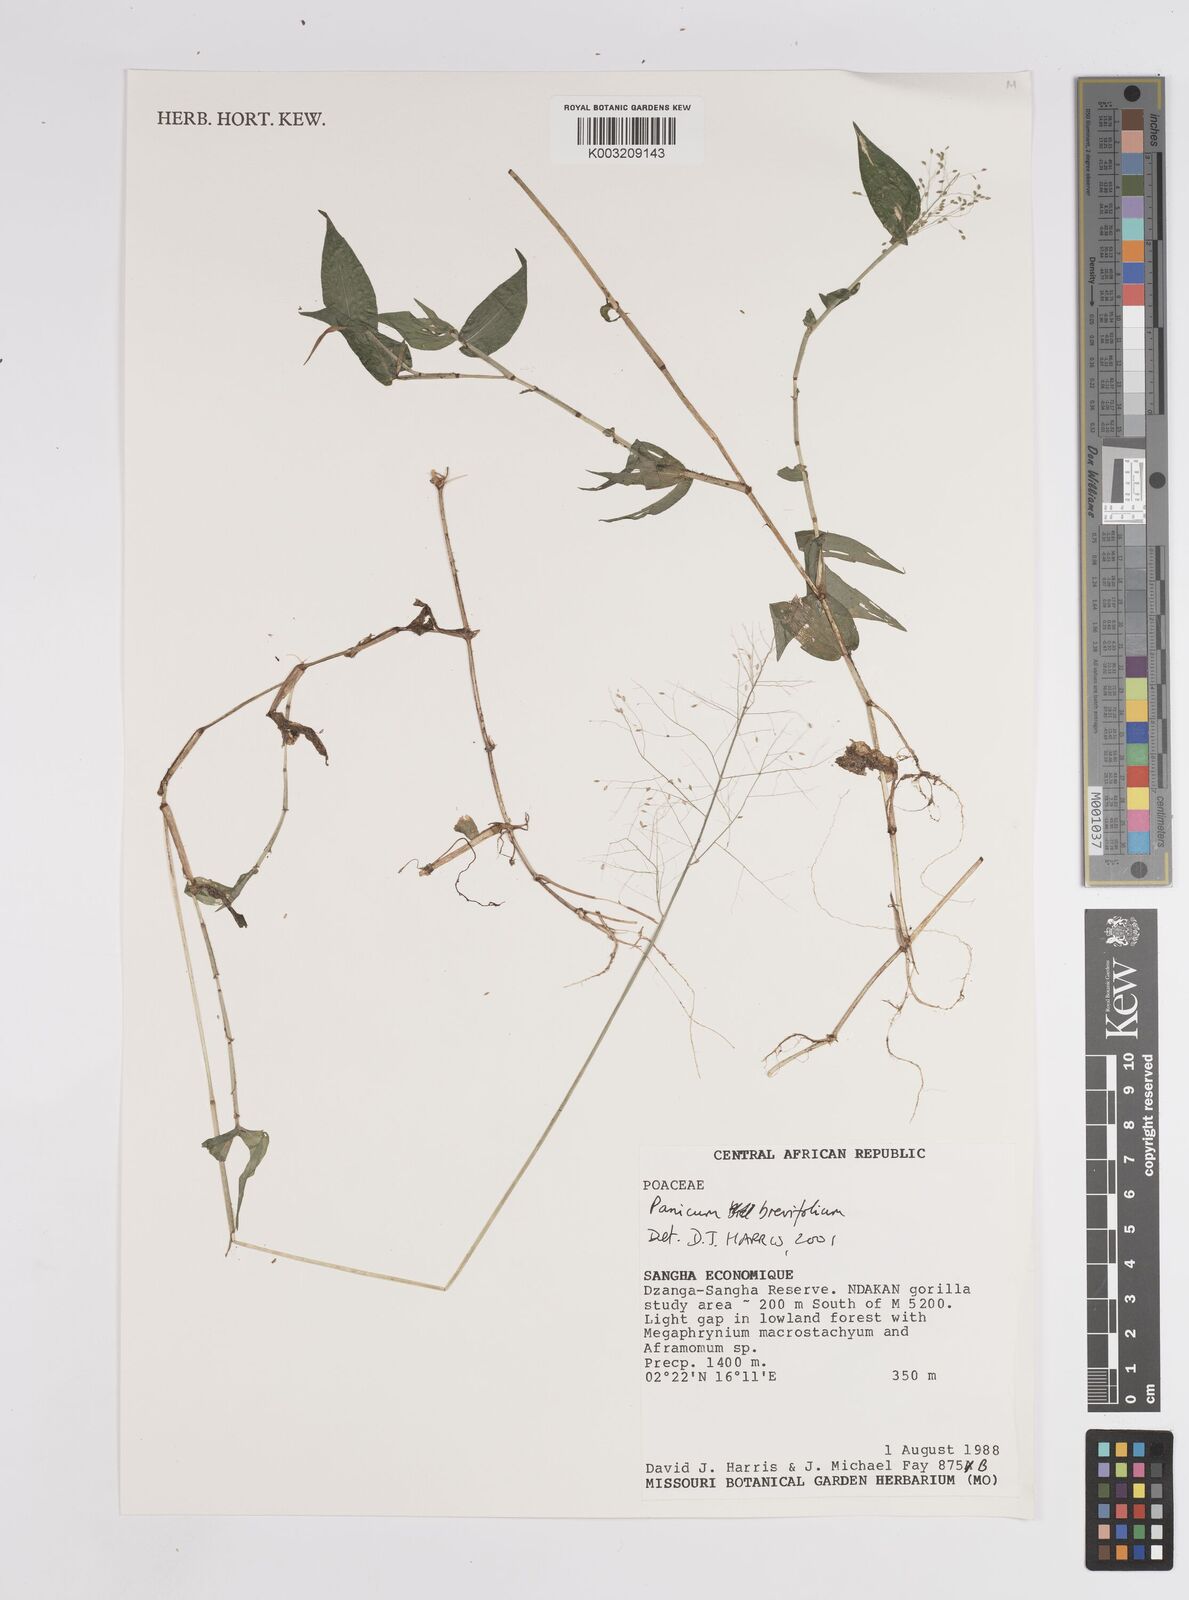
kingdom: Plantae
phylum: Tracheophyta
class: Liliopsida
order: Poales
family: Poaceae
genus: Panicum
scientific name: Panicum brevifolium
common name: Shortleaf panic grass
